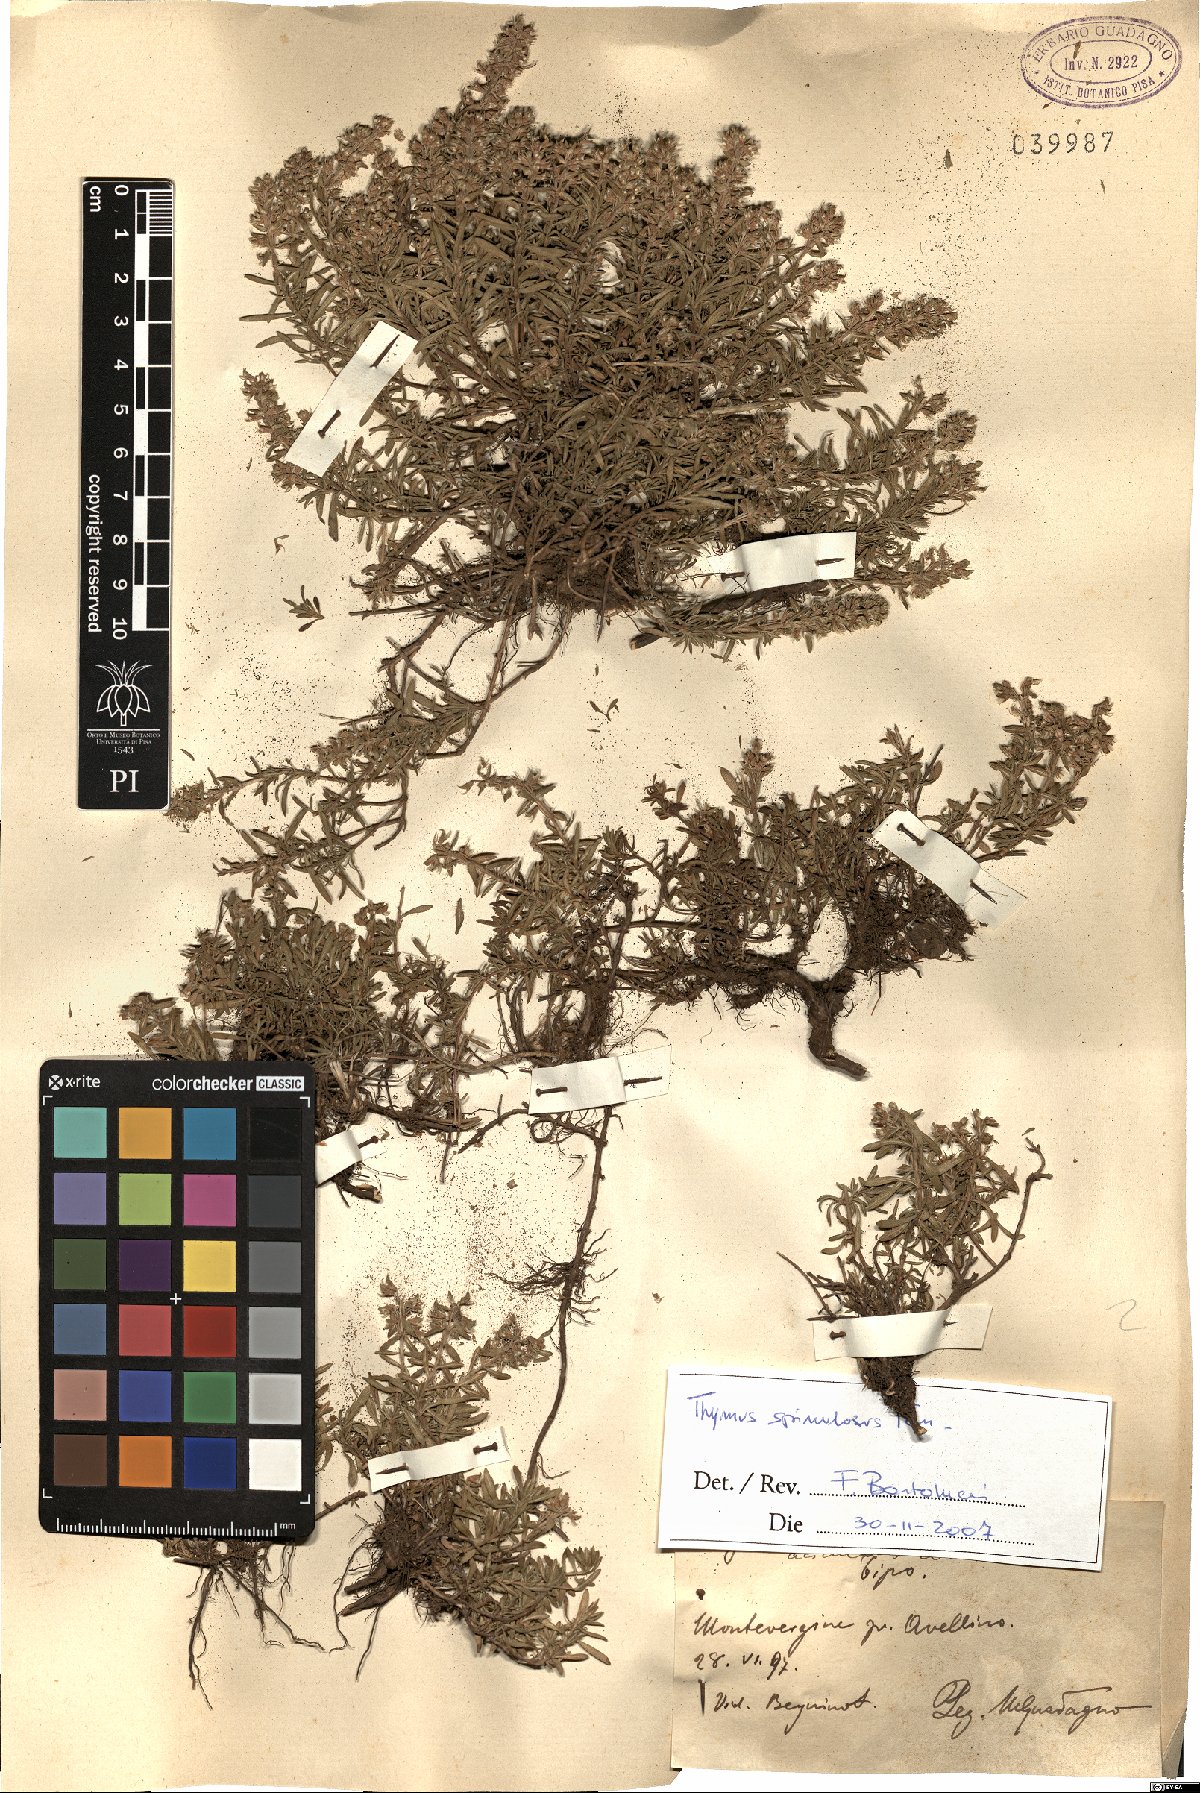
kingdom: Plantae
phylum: Tracheophyta
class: Magnoliopsida
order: Lamiales
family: Lamiaceae
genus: Thymus
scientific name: Thymus spinulosus
